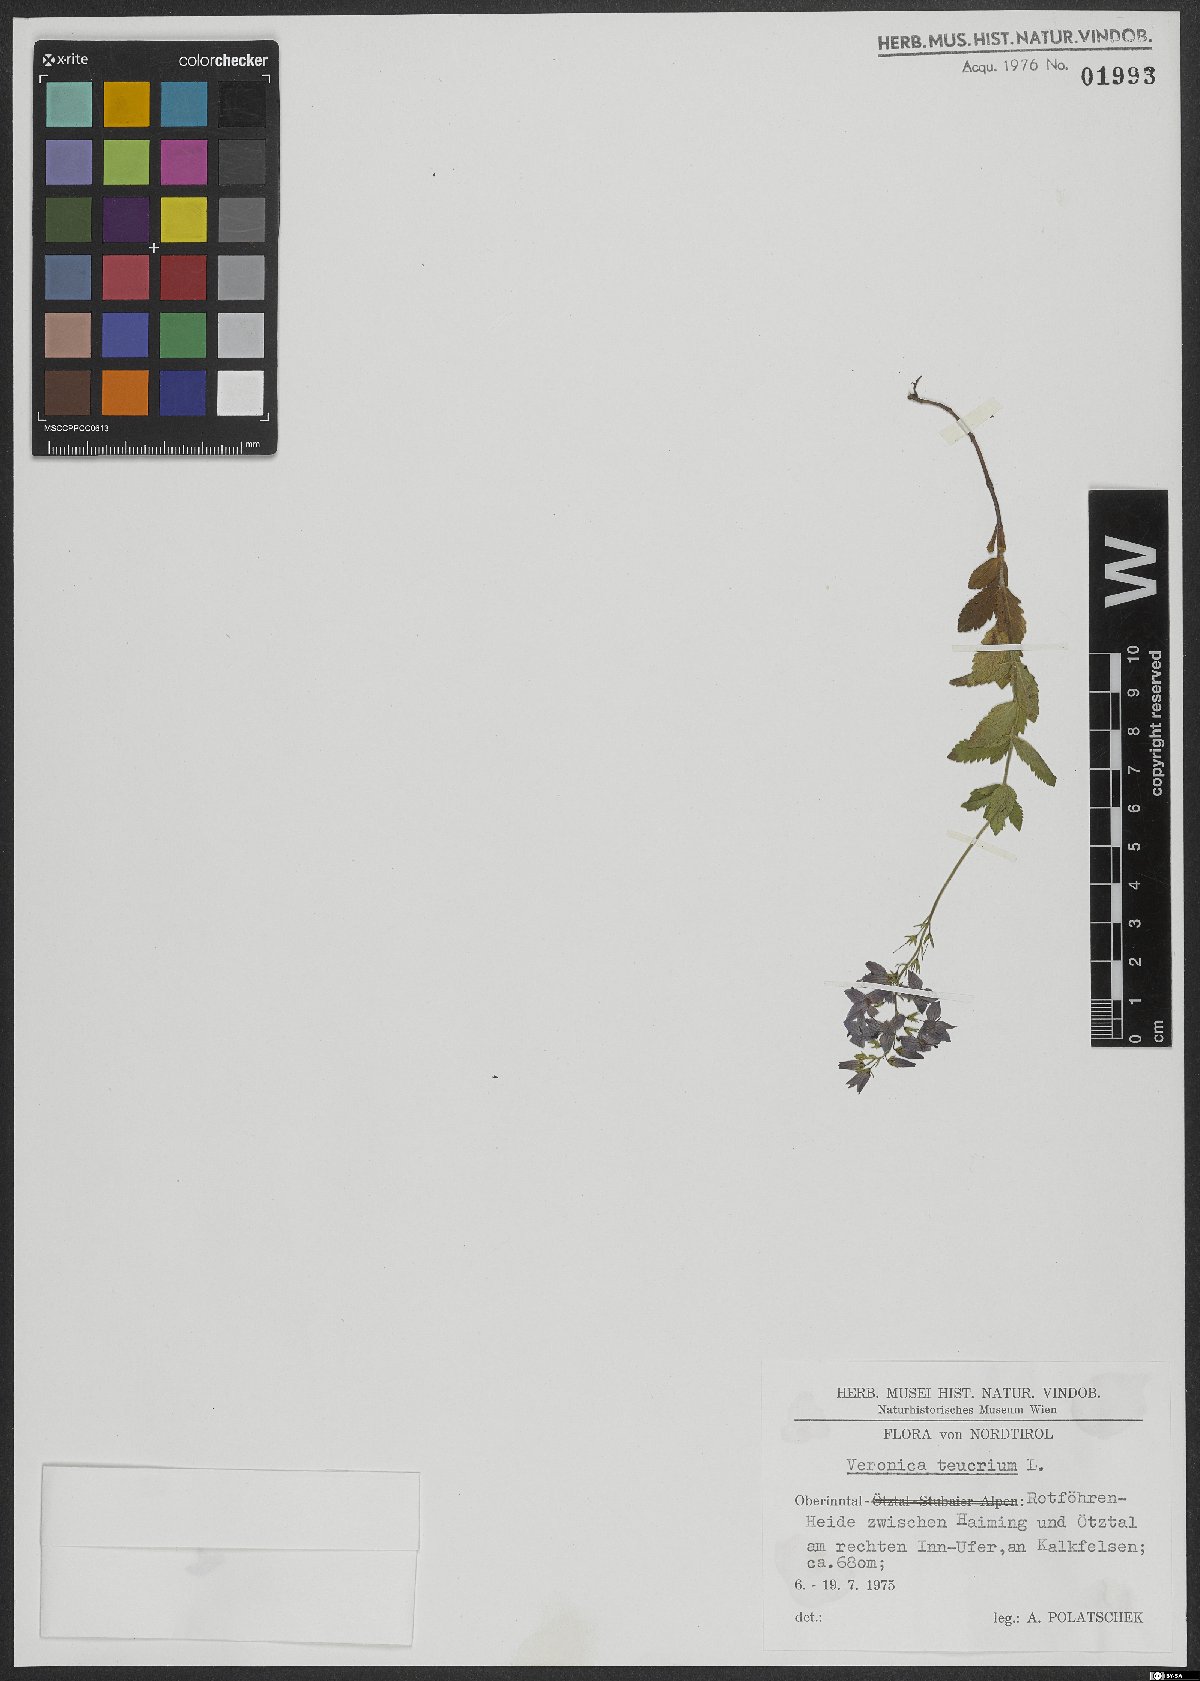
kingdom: Plantae
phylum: Tracheophyta
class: Magnoliopsida
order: Lamiales
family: Plantaginaceae
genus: Veronica
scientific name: Veronica teucrium
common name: Large speedwell
